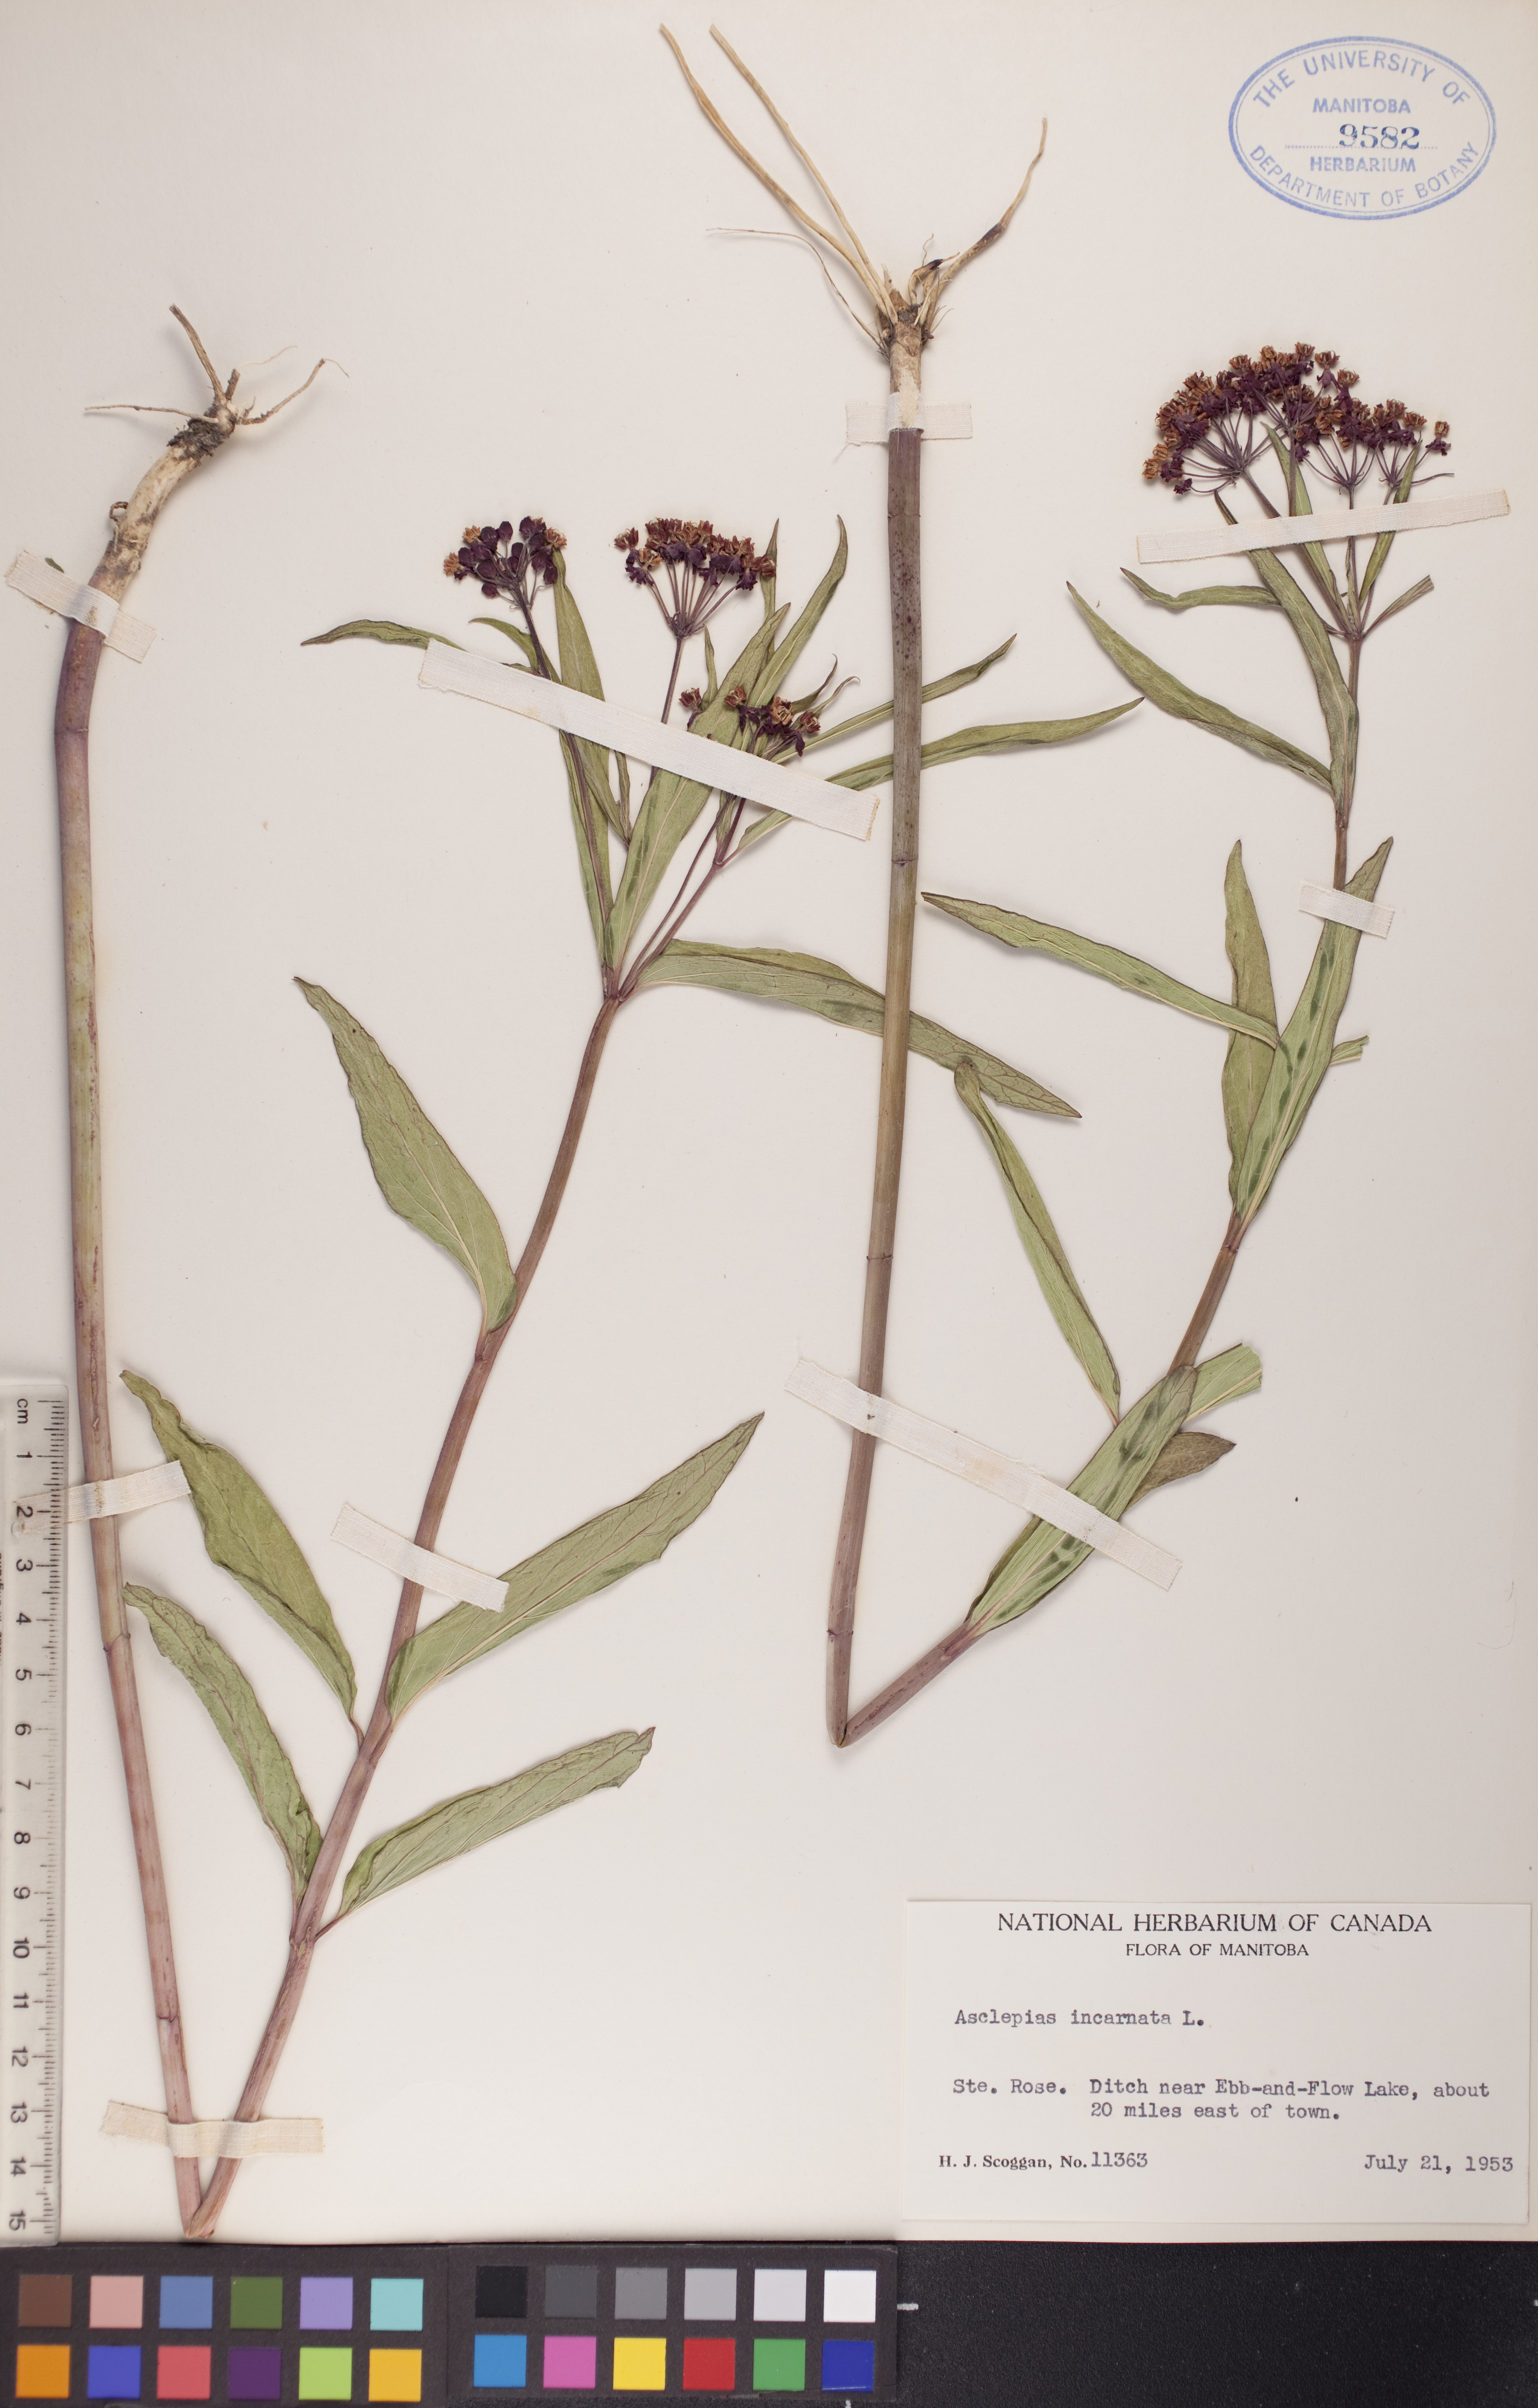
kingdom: Plantae
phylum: Tracheophyta
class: Magnoliopsida
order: Gentianales
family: Apocynaceae
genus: Asclepias
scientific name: Asclepias incarnata
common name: Swamp milkweed
